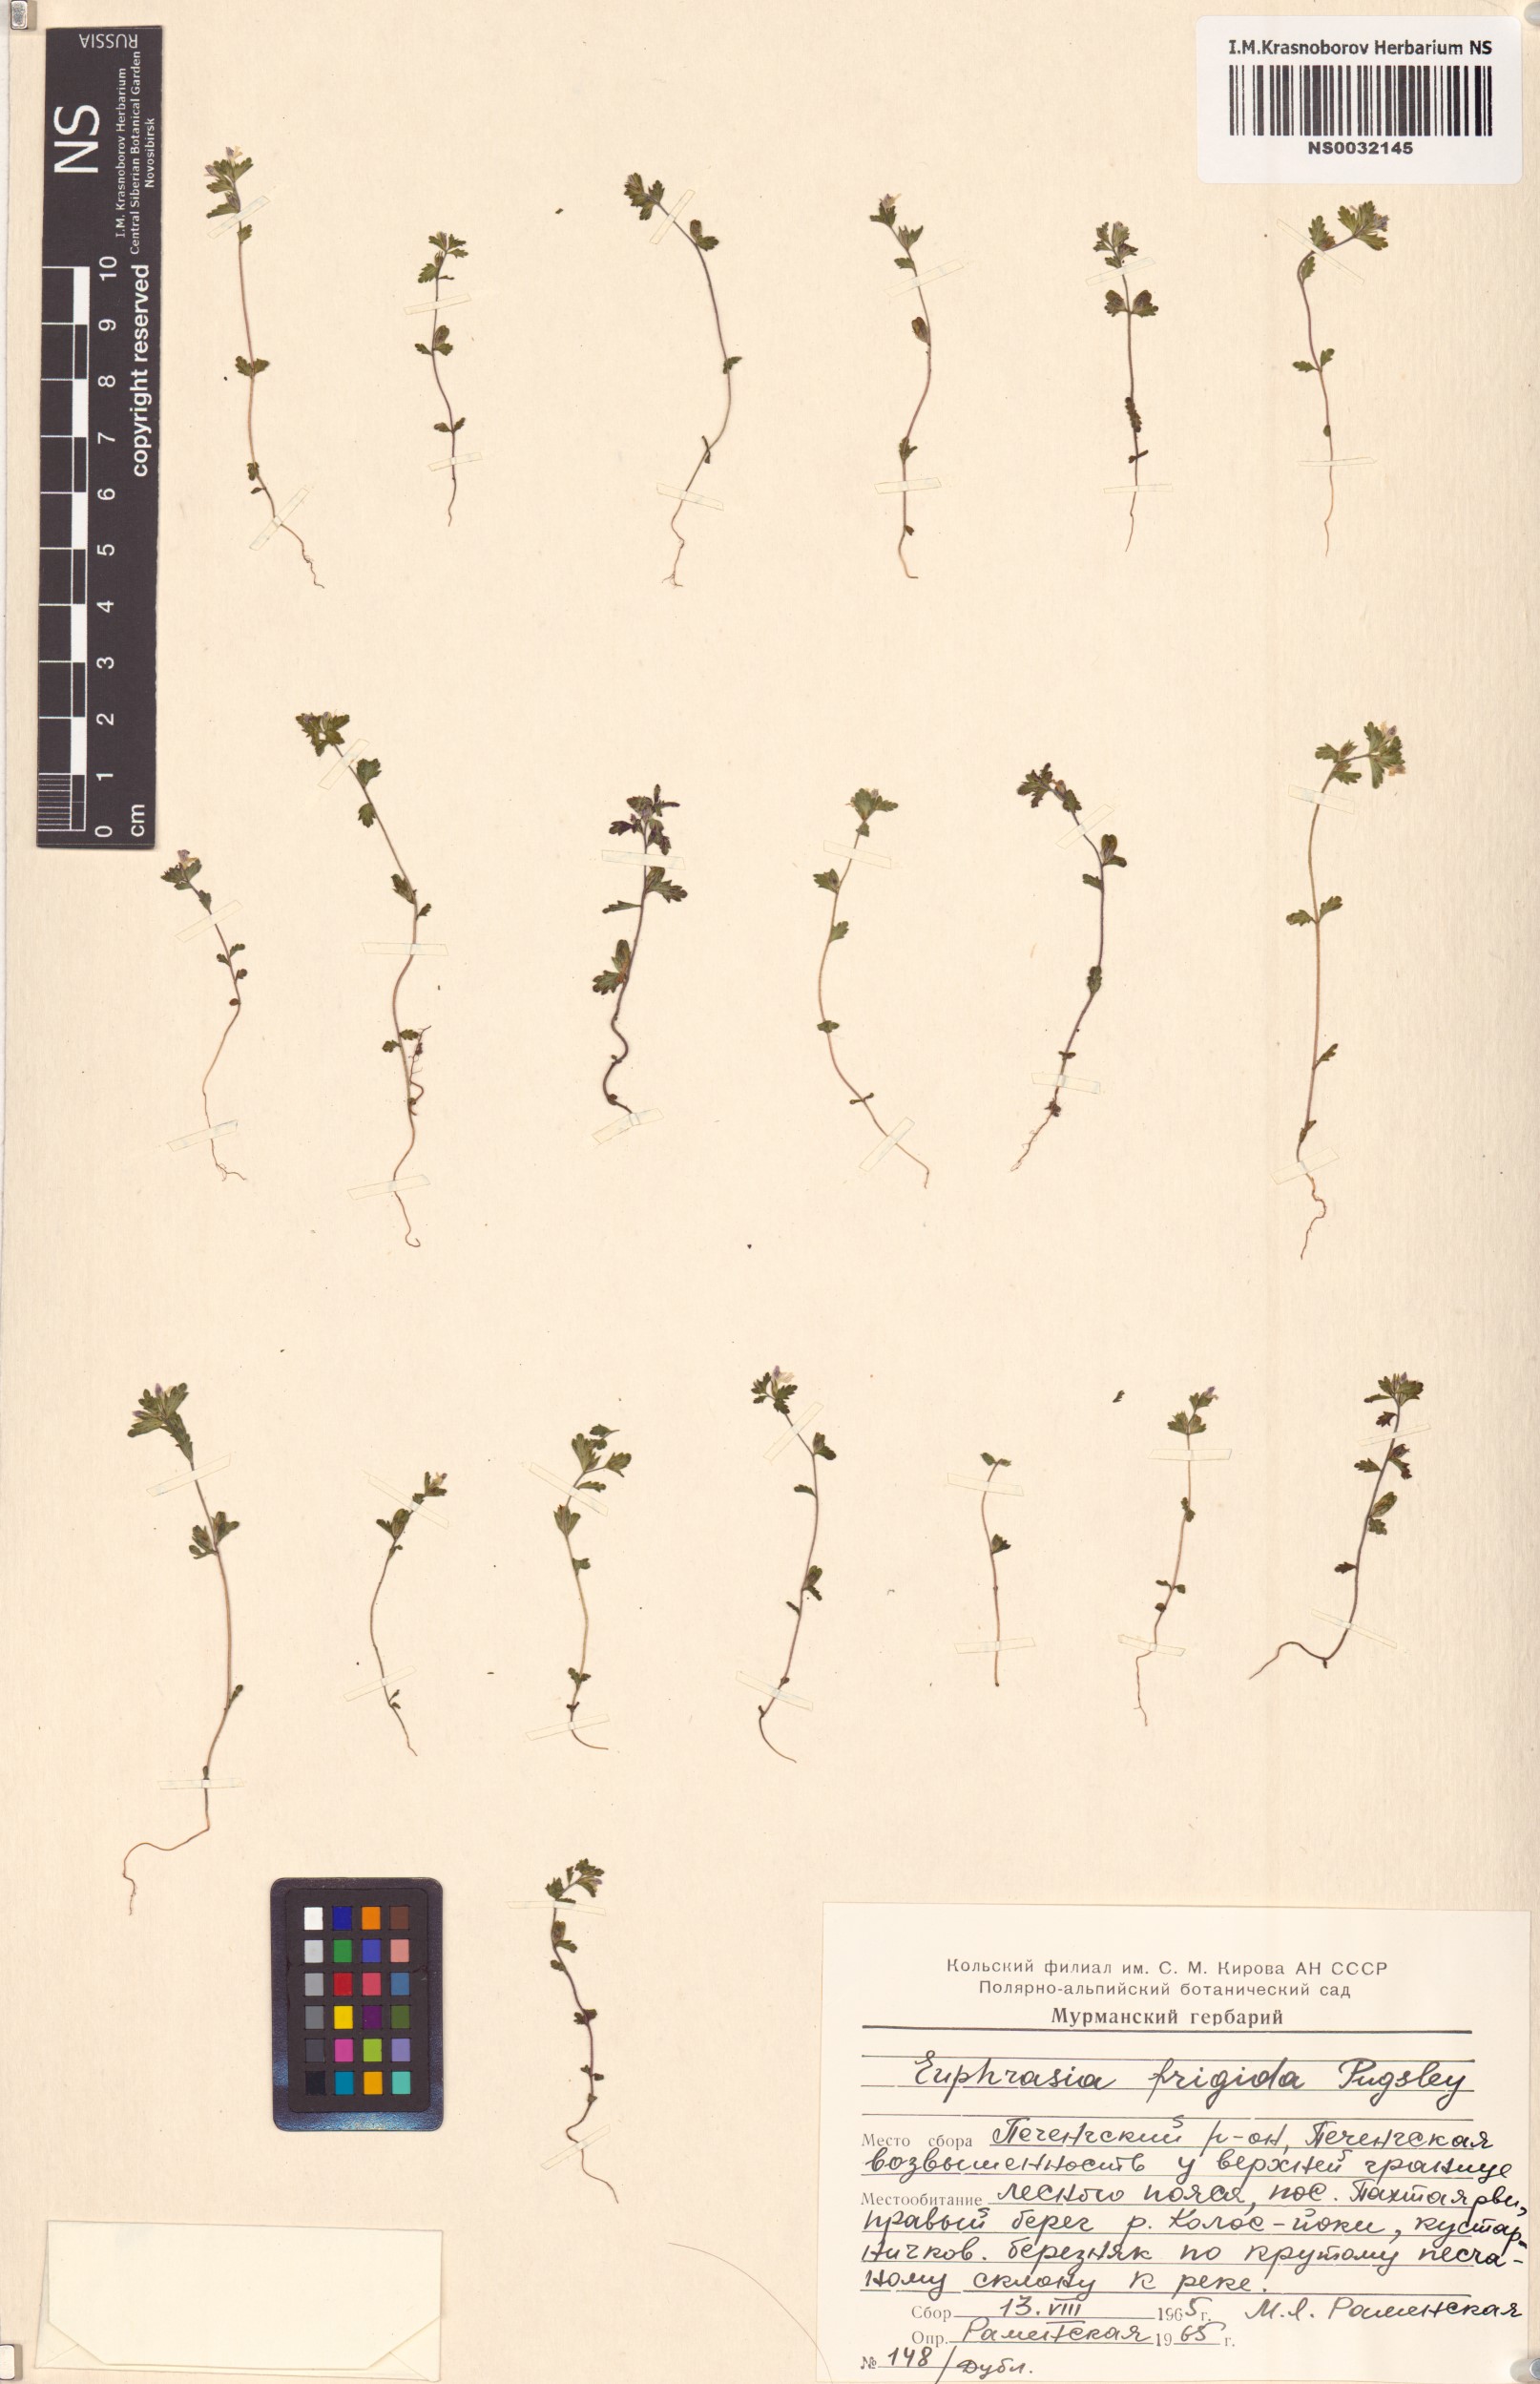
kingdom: Plantae
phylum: Tracheophyta
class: Magnoliopsida
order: Lamiales
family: Orobanchaceae
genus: Euphrasia
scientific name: Euphrasia frigida
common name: An eyebright
